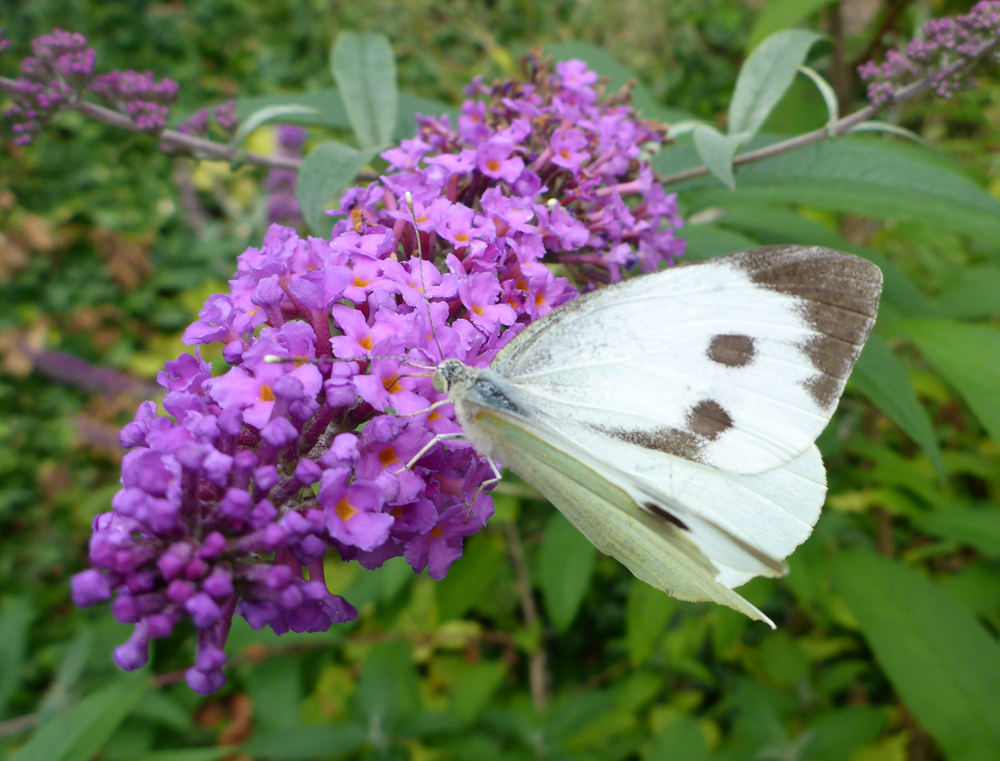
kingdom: Animalia
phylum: Arthropoda
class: Insecta
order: Lepidoptera
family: Pieridae
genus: Pieris
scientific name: Pieris brassicae
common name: Large white
